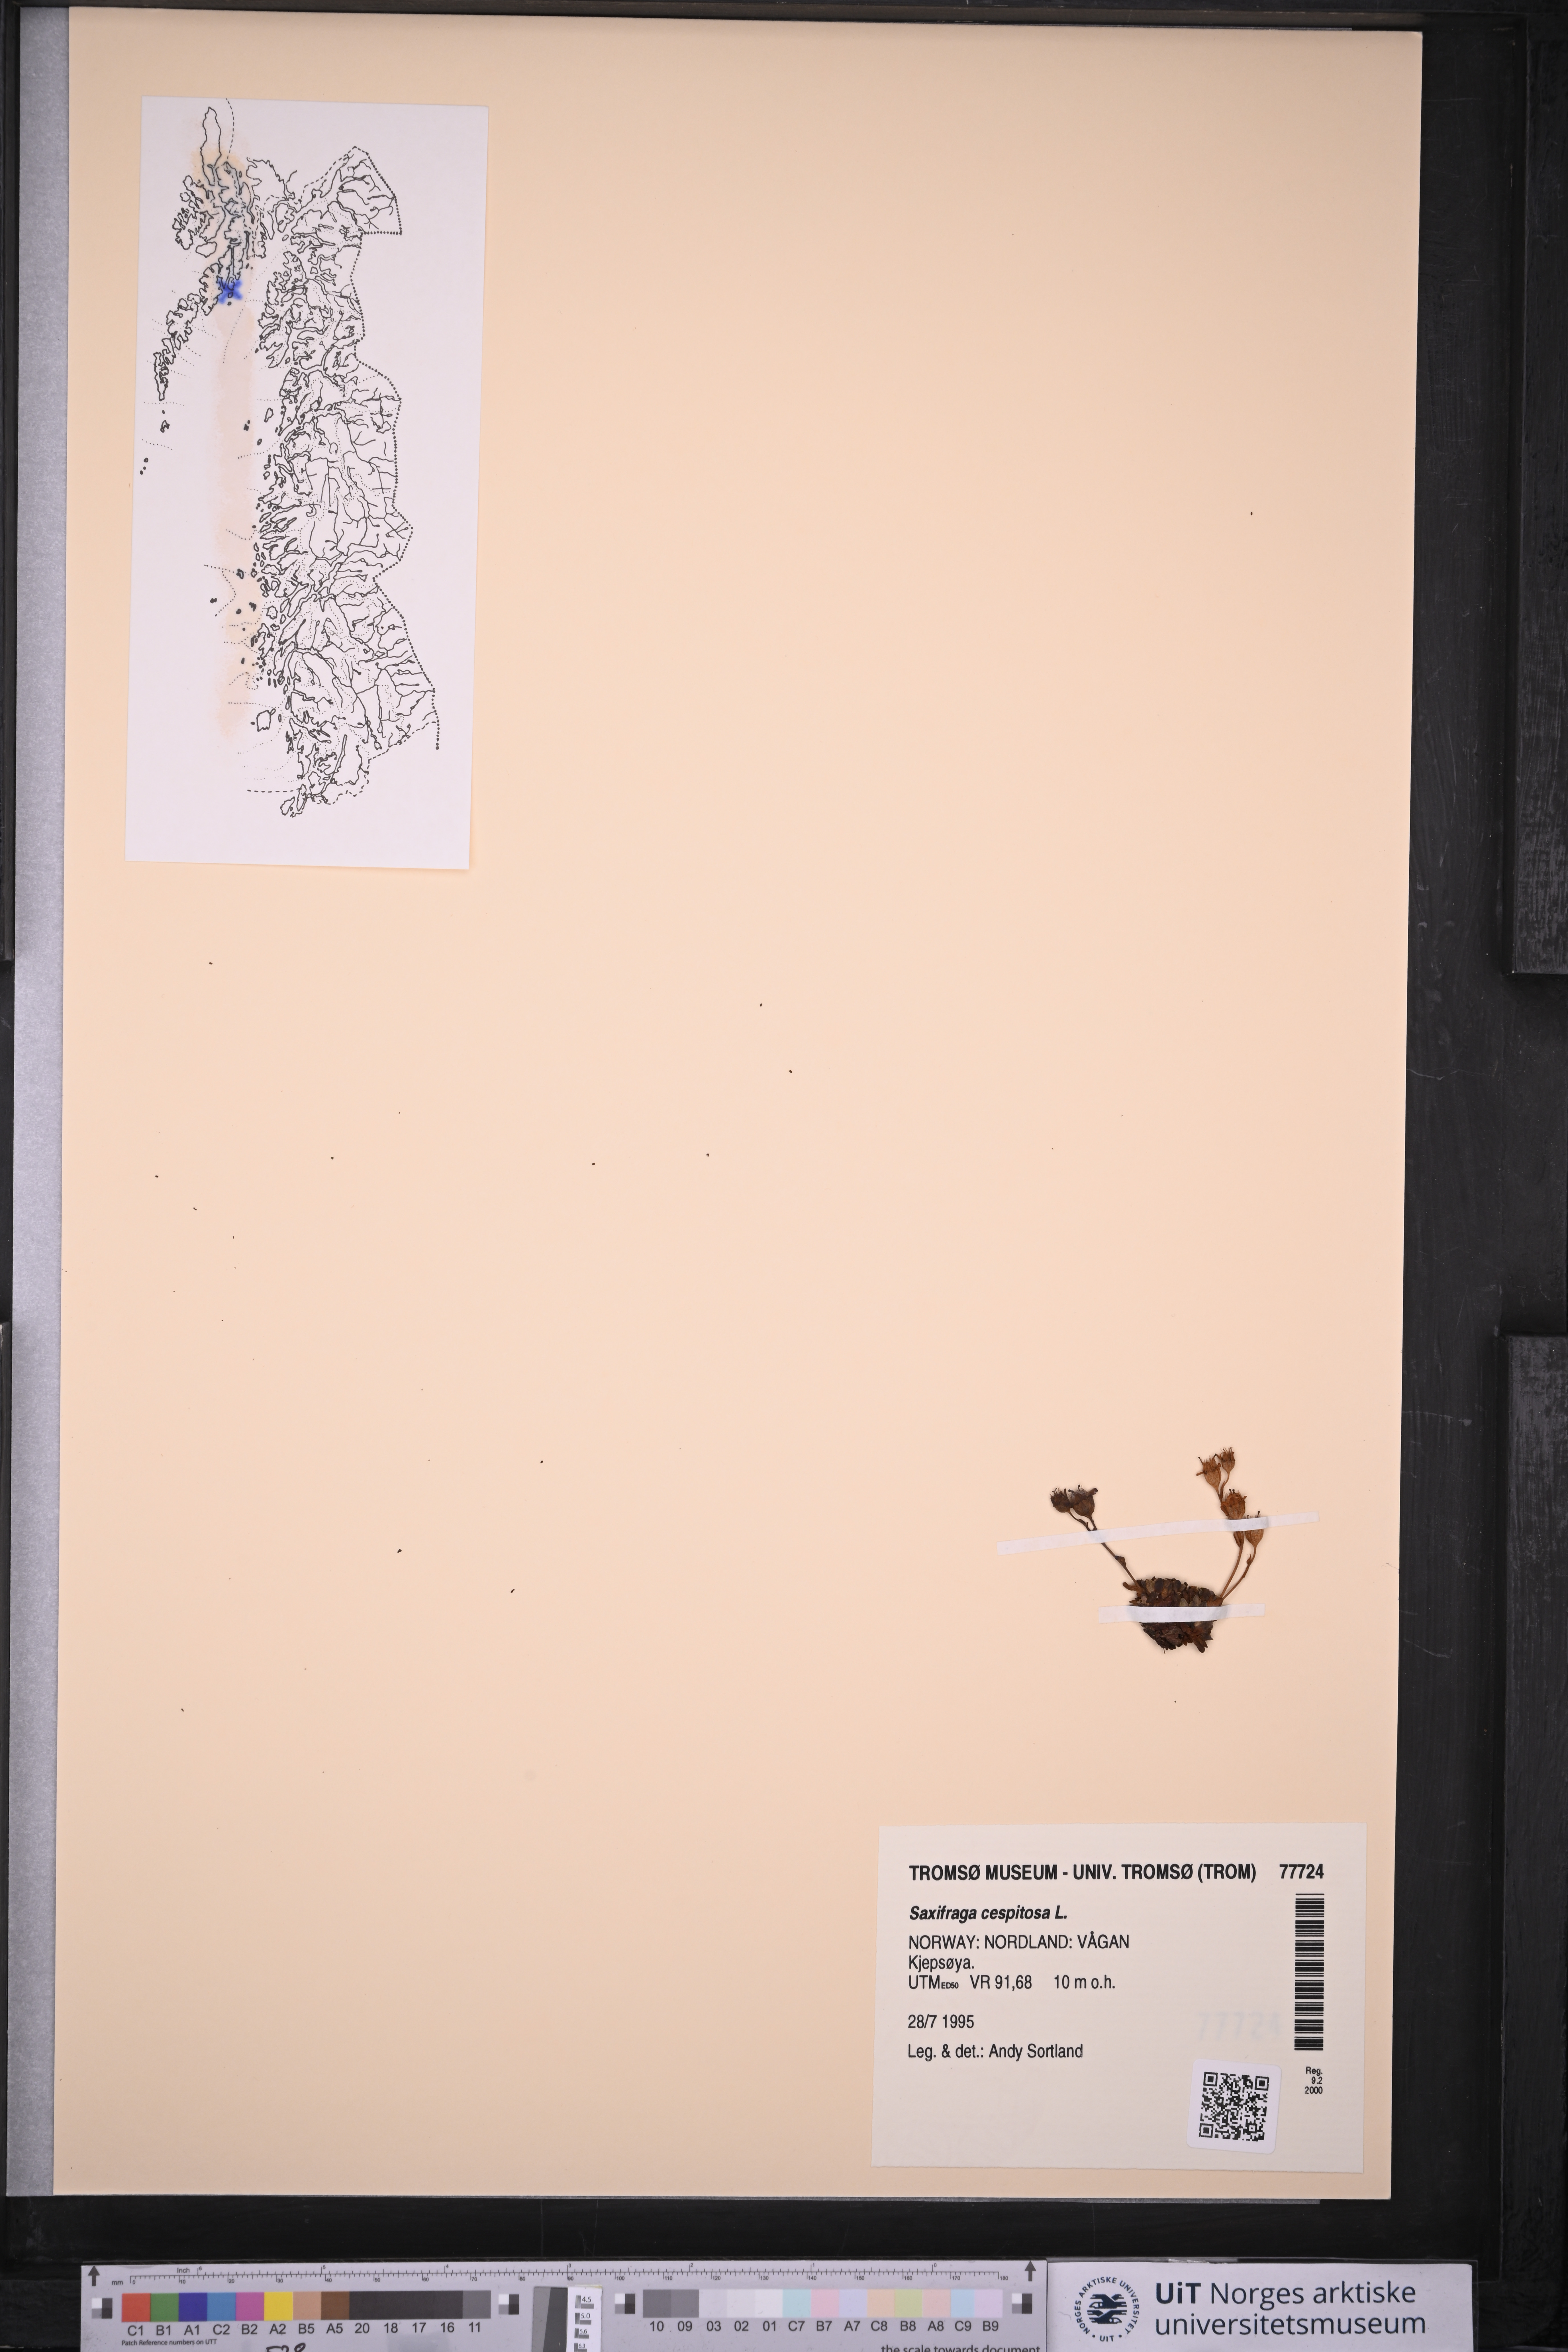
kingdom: Plantae
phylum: Tracheophyta
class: Magnoliopsida
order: Saxifragales
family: Saxifragaceae
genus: Saxifraga
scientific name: Saxifraga cespitosa
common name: Tufted saxifrage
